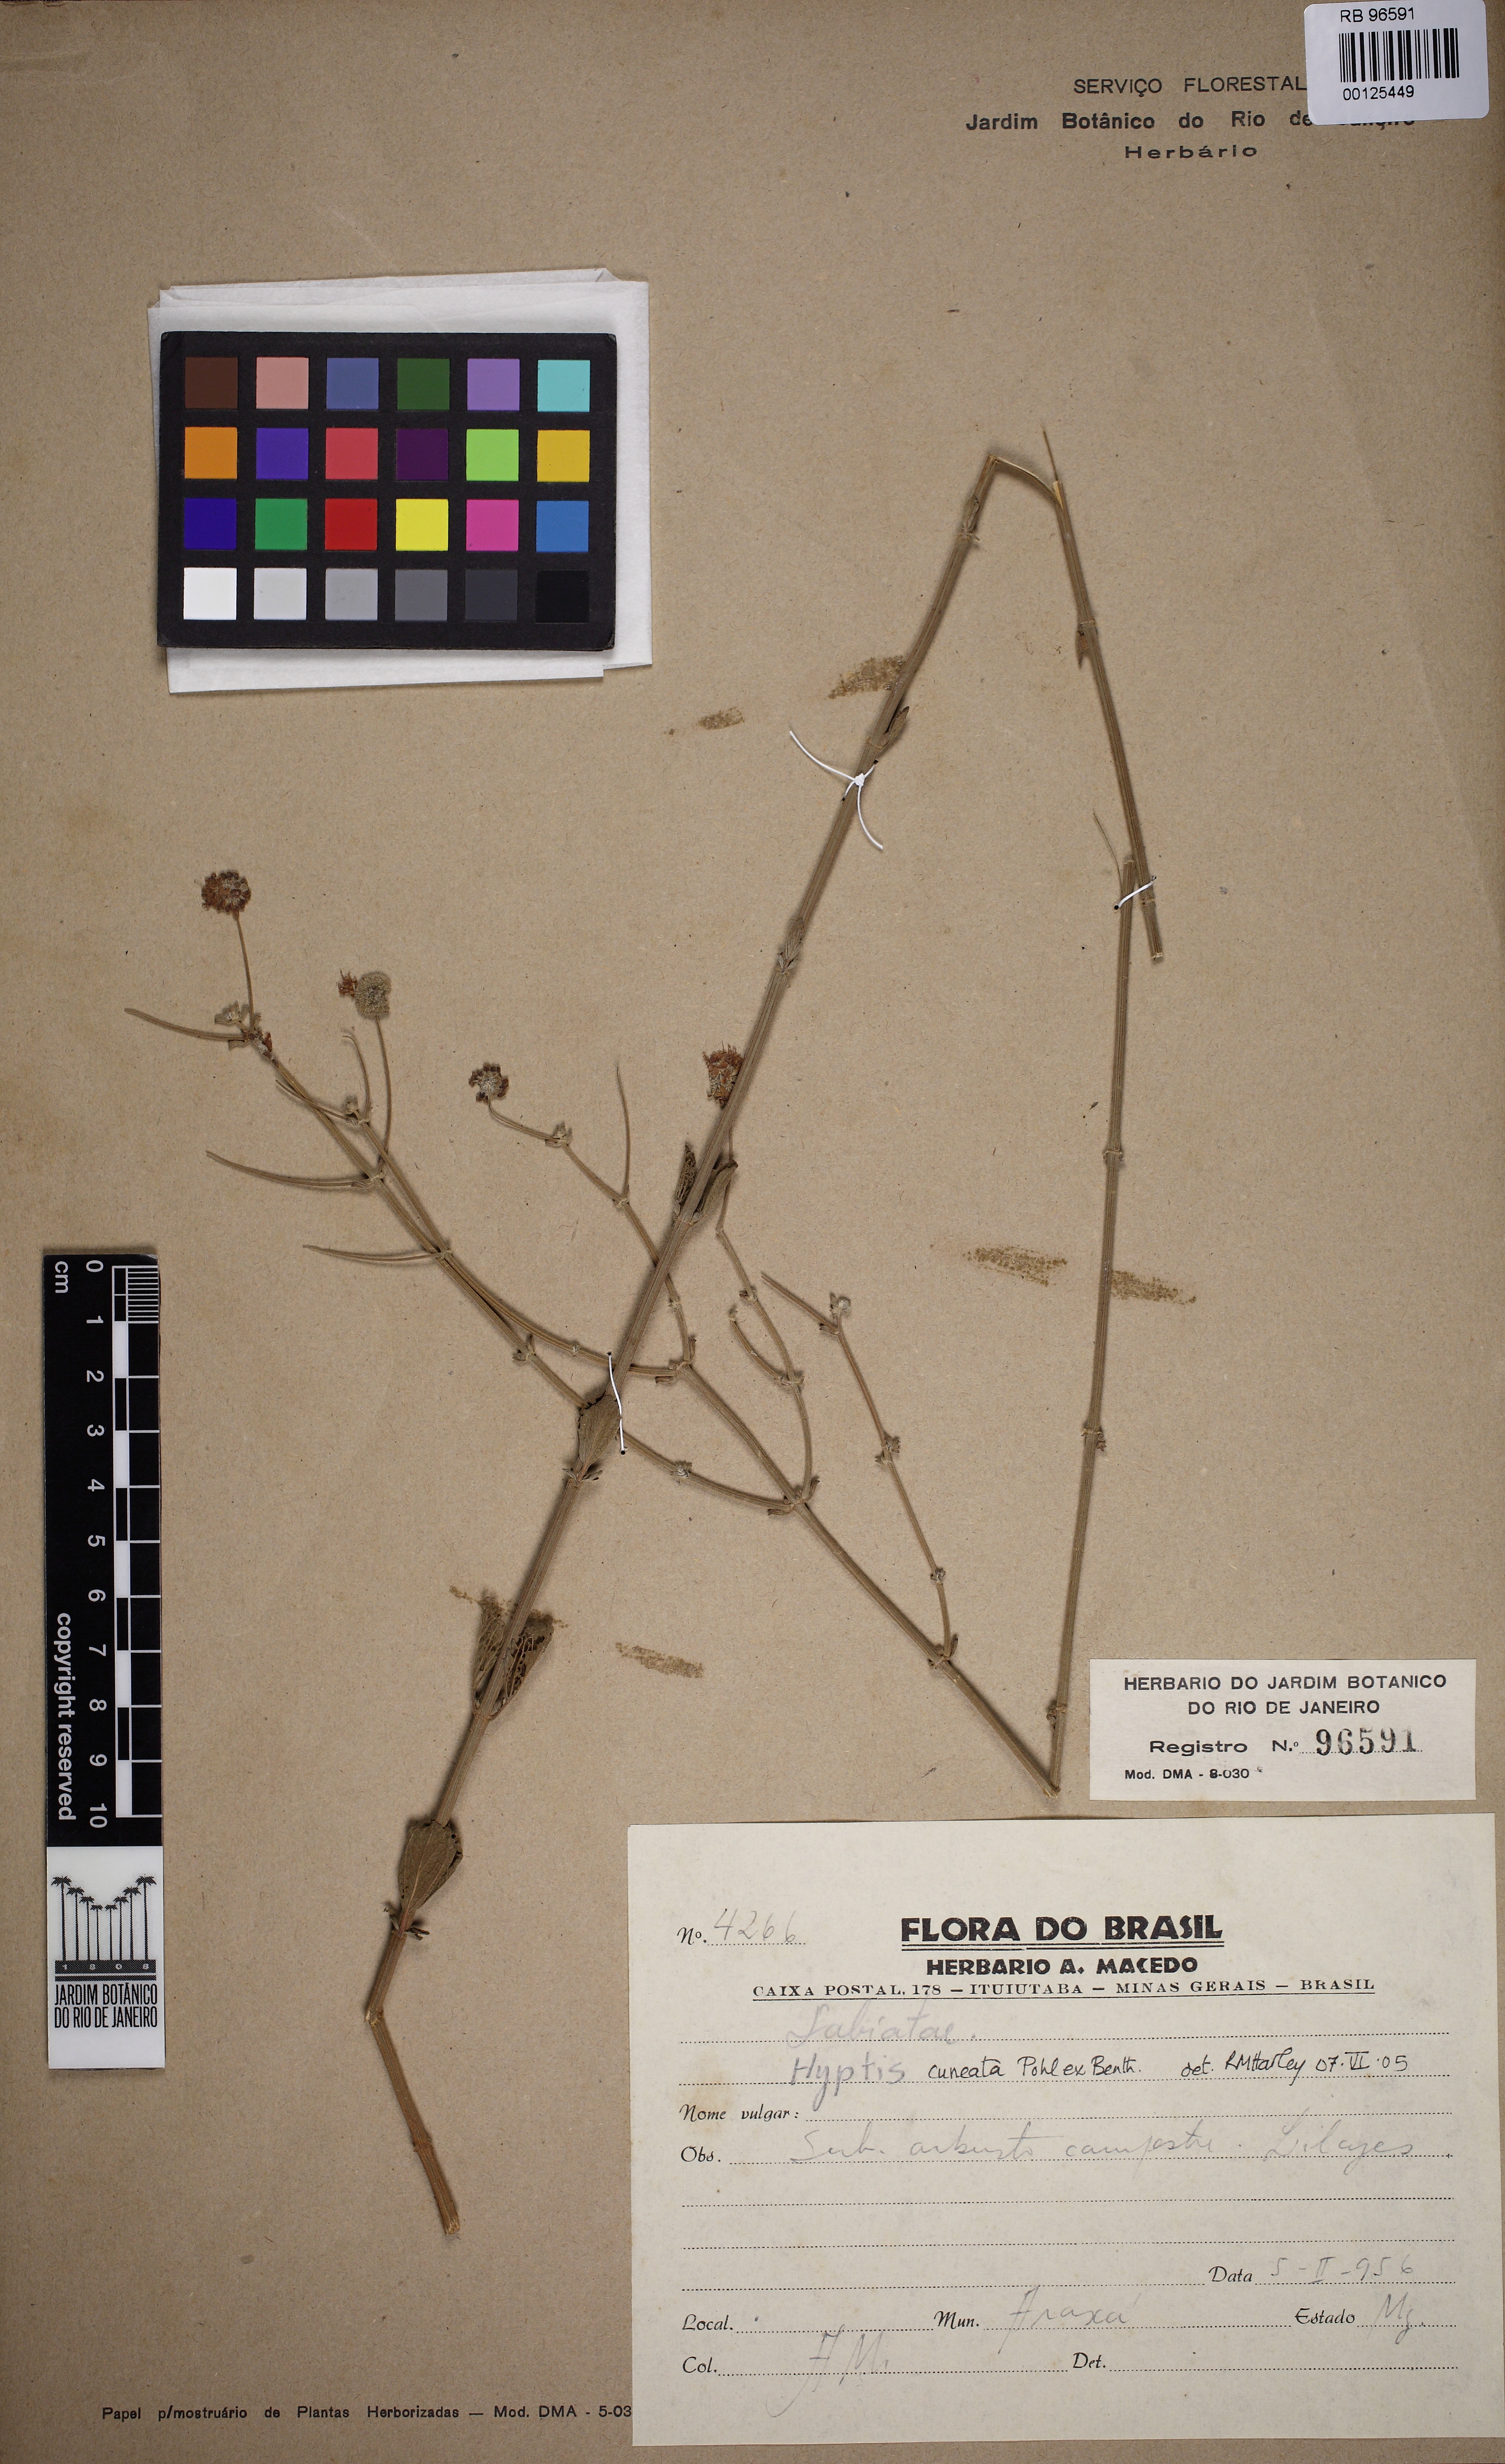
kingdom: Plantae
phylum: Tracheophyta
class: Magnoliopsida
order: Lamiales
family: Lamiaceae
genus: Cyanocephalus
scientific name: Cyanocephalus cuneatus
